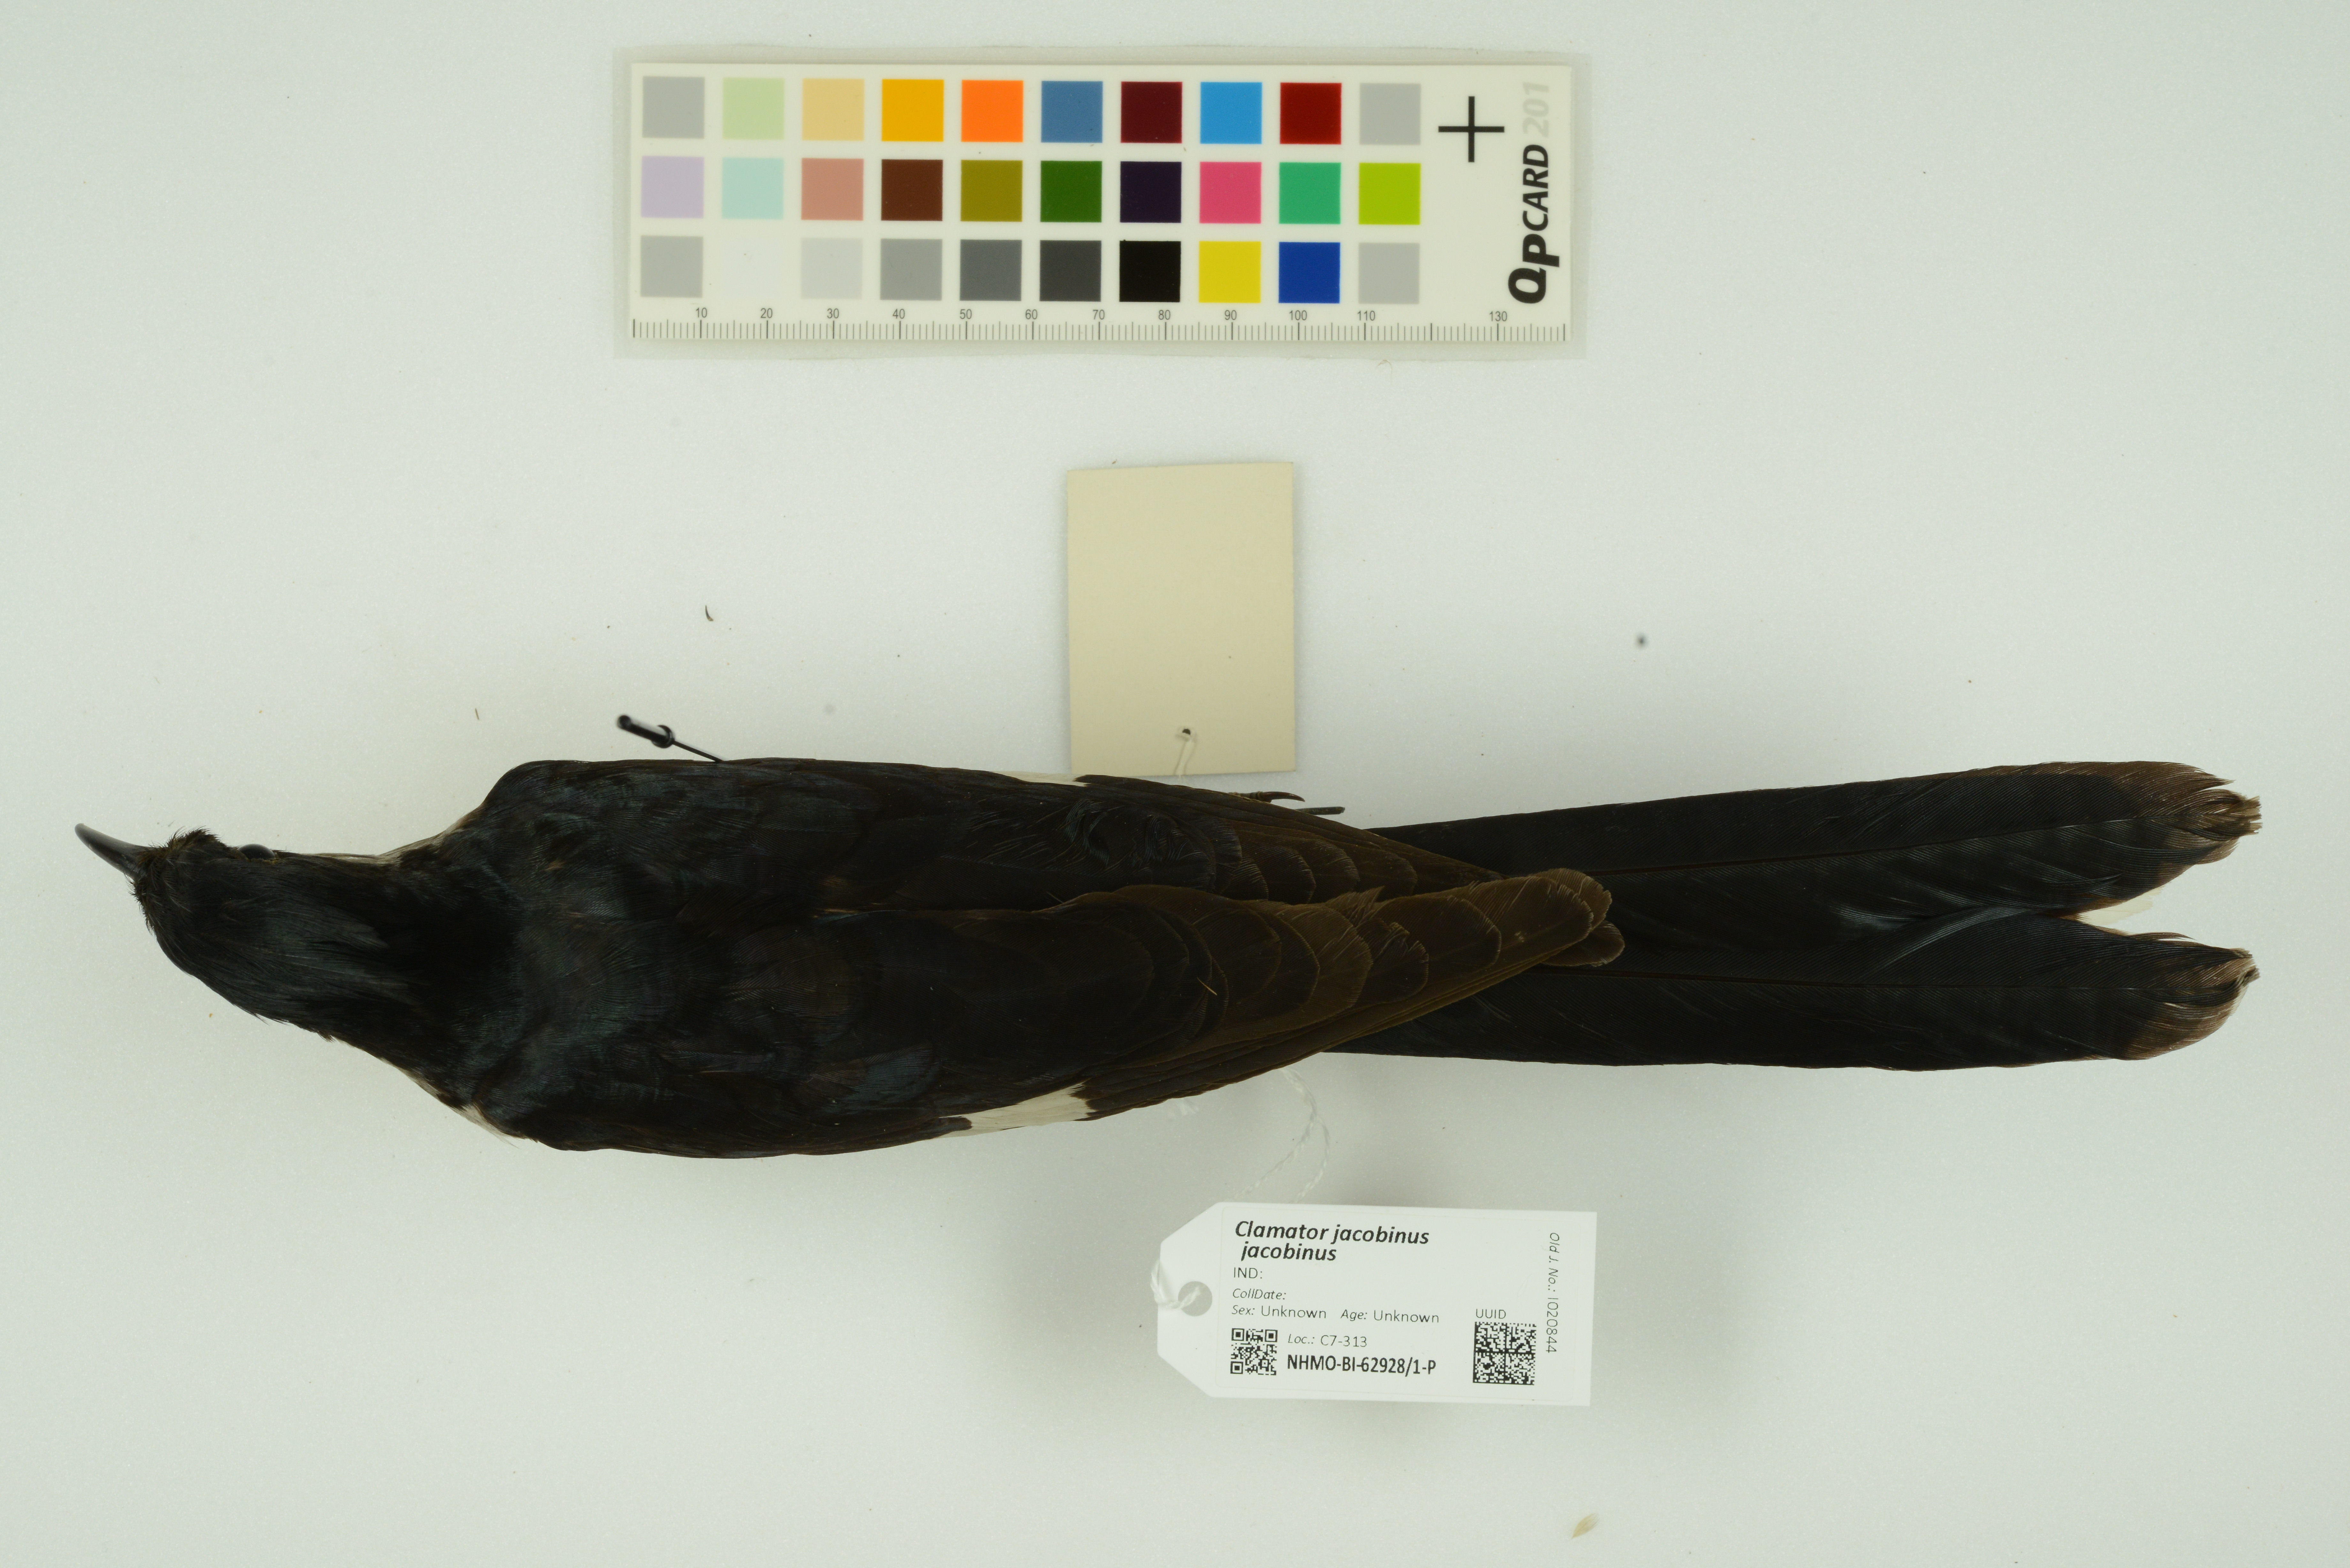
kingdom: Animalia
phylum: Chordata
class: Aves
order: Cuculiformes
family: Cuculidae
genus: Clamator
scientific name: Clamator jacobinus
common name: Jacobin cuckoo
